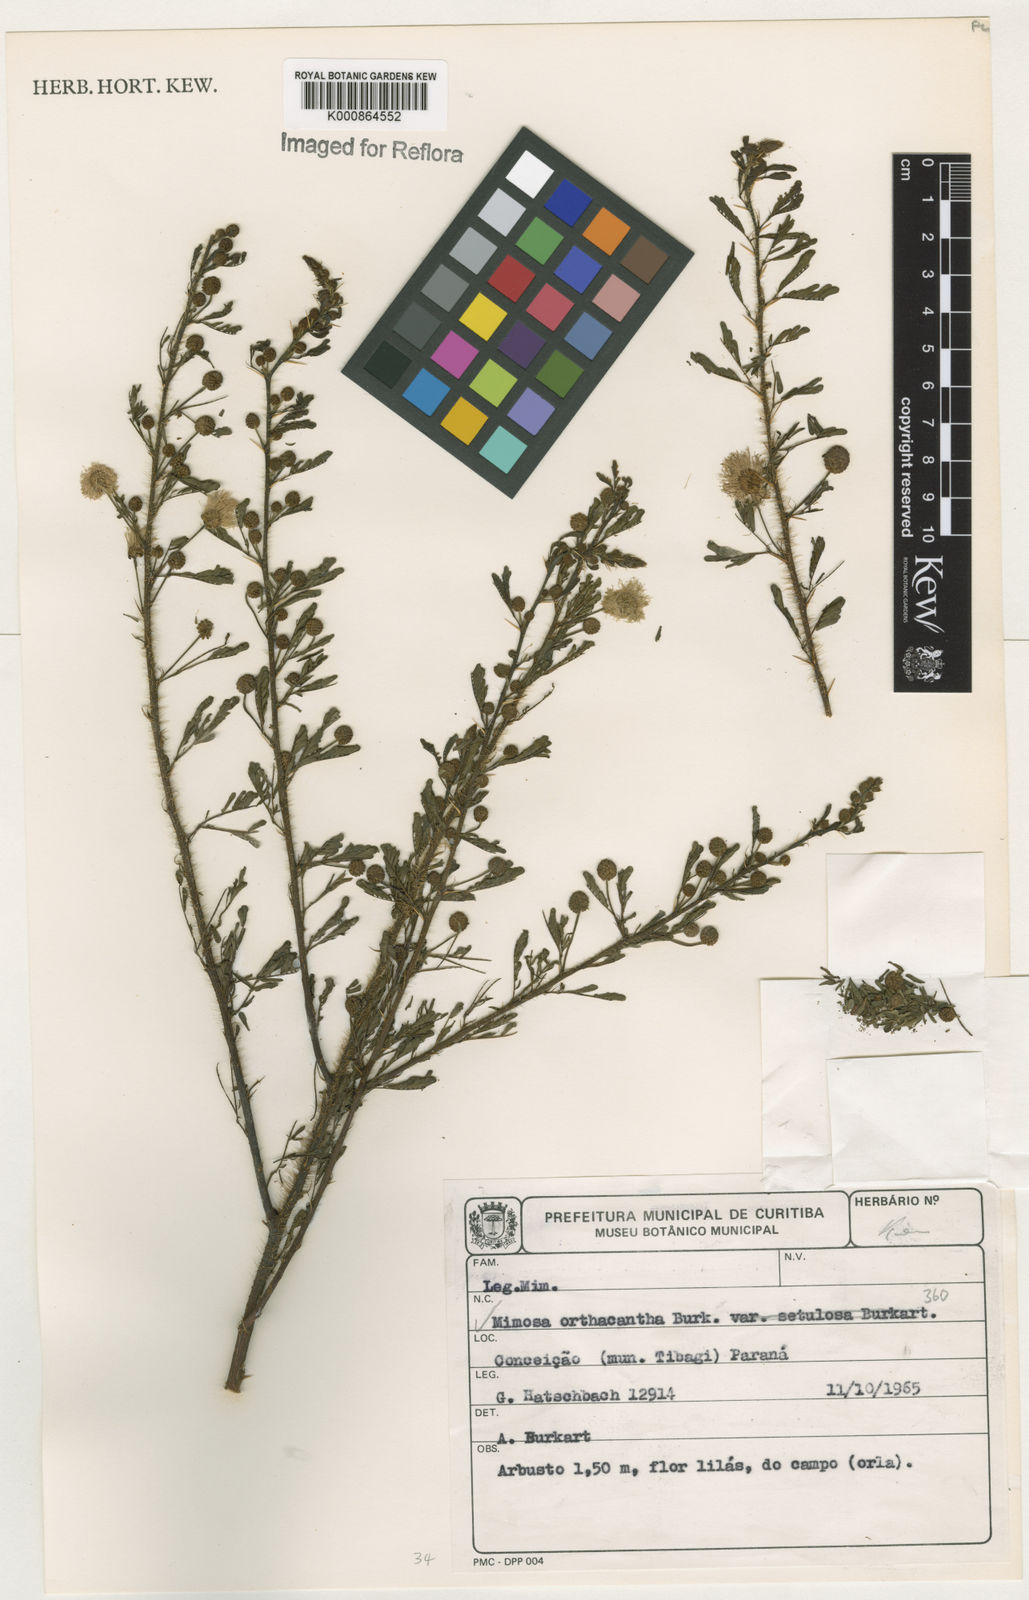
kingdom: Plantae
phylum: Tracheophyta
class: Magnoliopsida
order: Fabales
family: Fabaceae
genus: Mimosa
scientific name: Mimosa orthacantha
